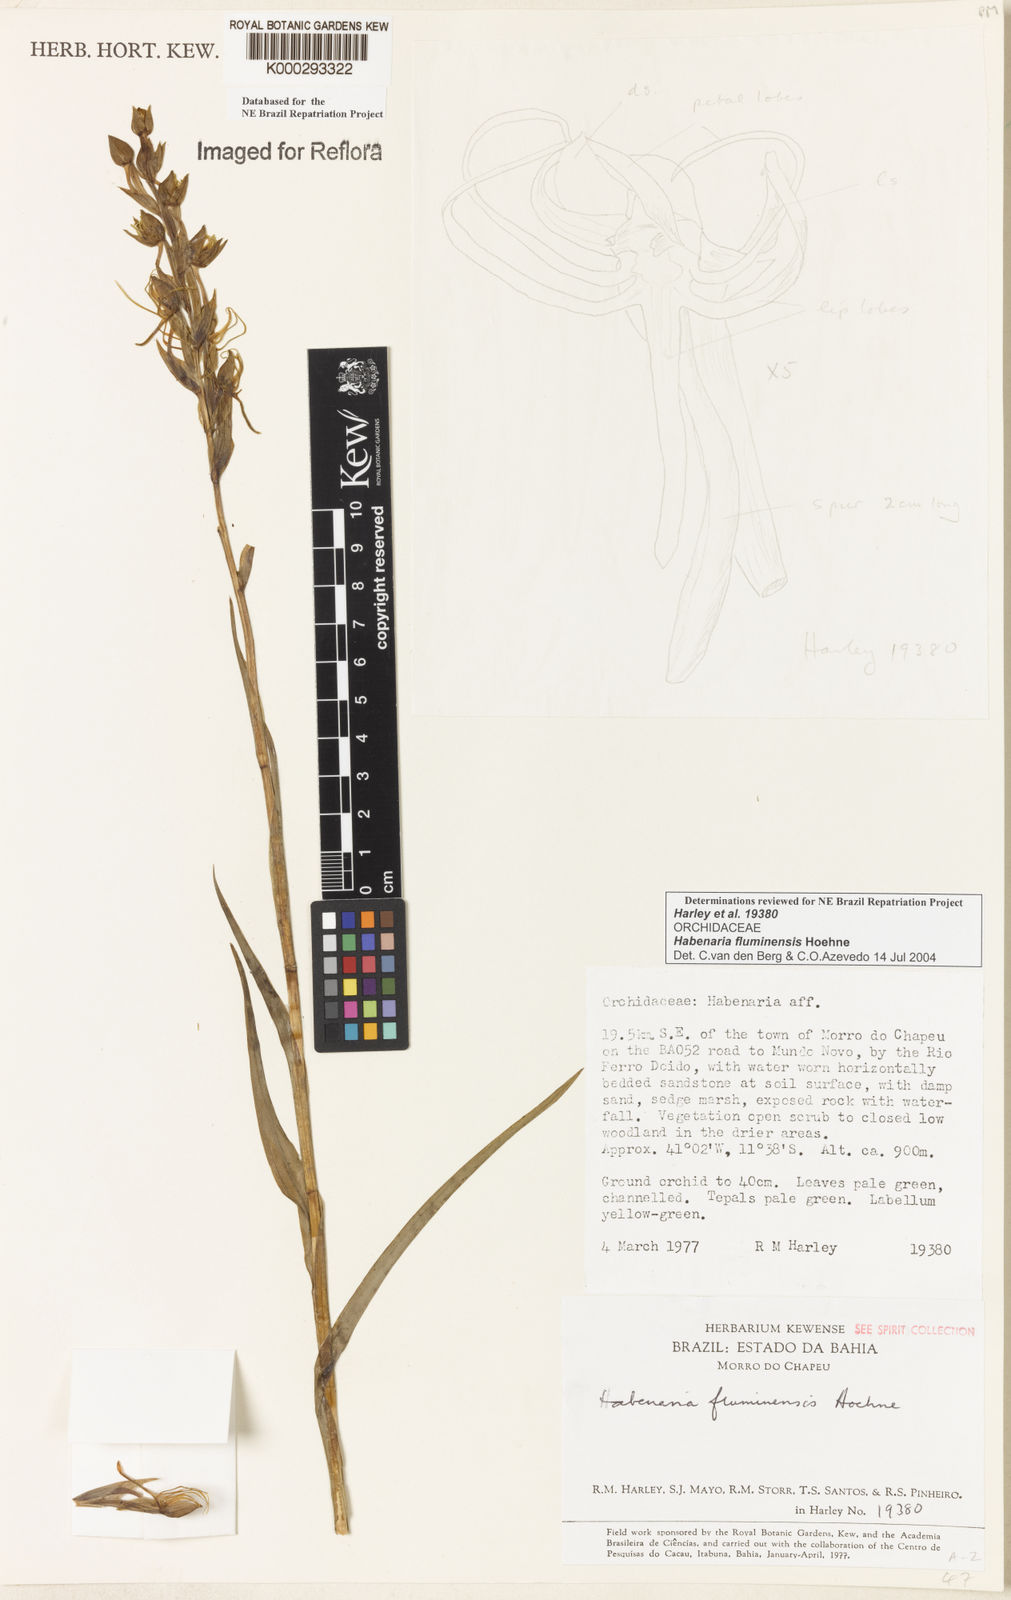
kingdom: Plantae
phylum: Tracheophyta
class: Liliopsida
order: Asparagales
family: Orchidaceae
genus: Habenaria
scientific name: Habenaria fluminensis
